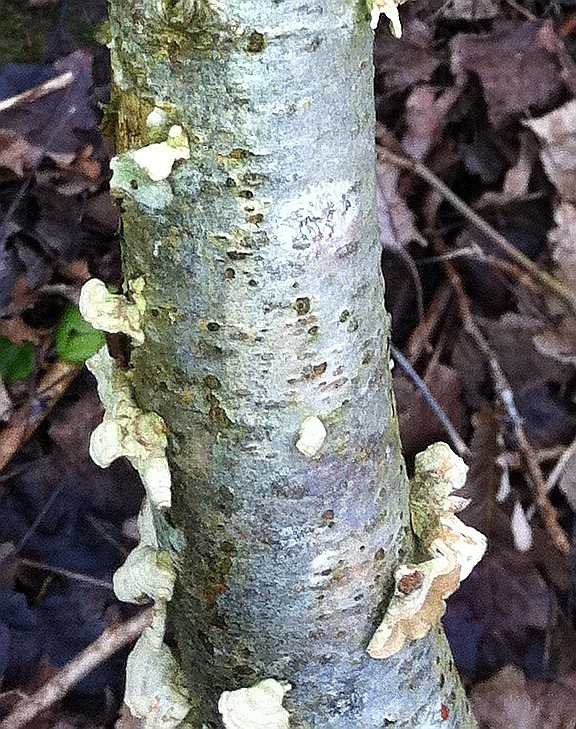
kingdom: Fungi
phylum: Basidiomycota
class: Agaricomycetes
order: Russulales
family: Stereaceae
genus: Stereum
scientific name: Stereum hirsutum
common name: håret lædersvamp
